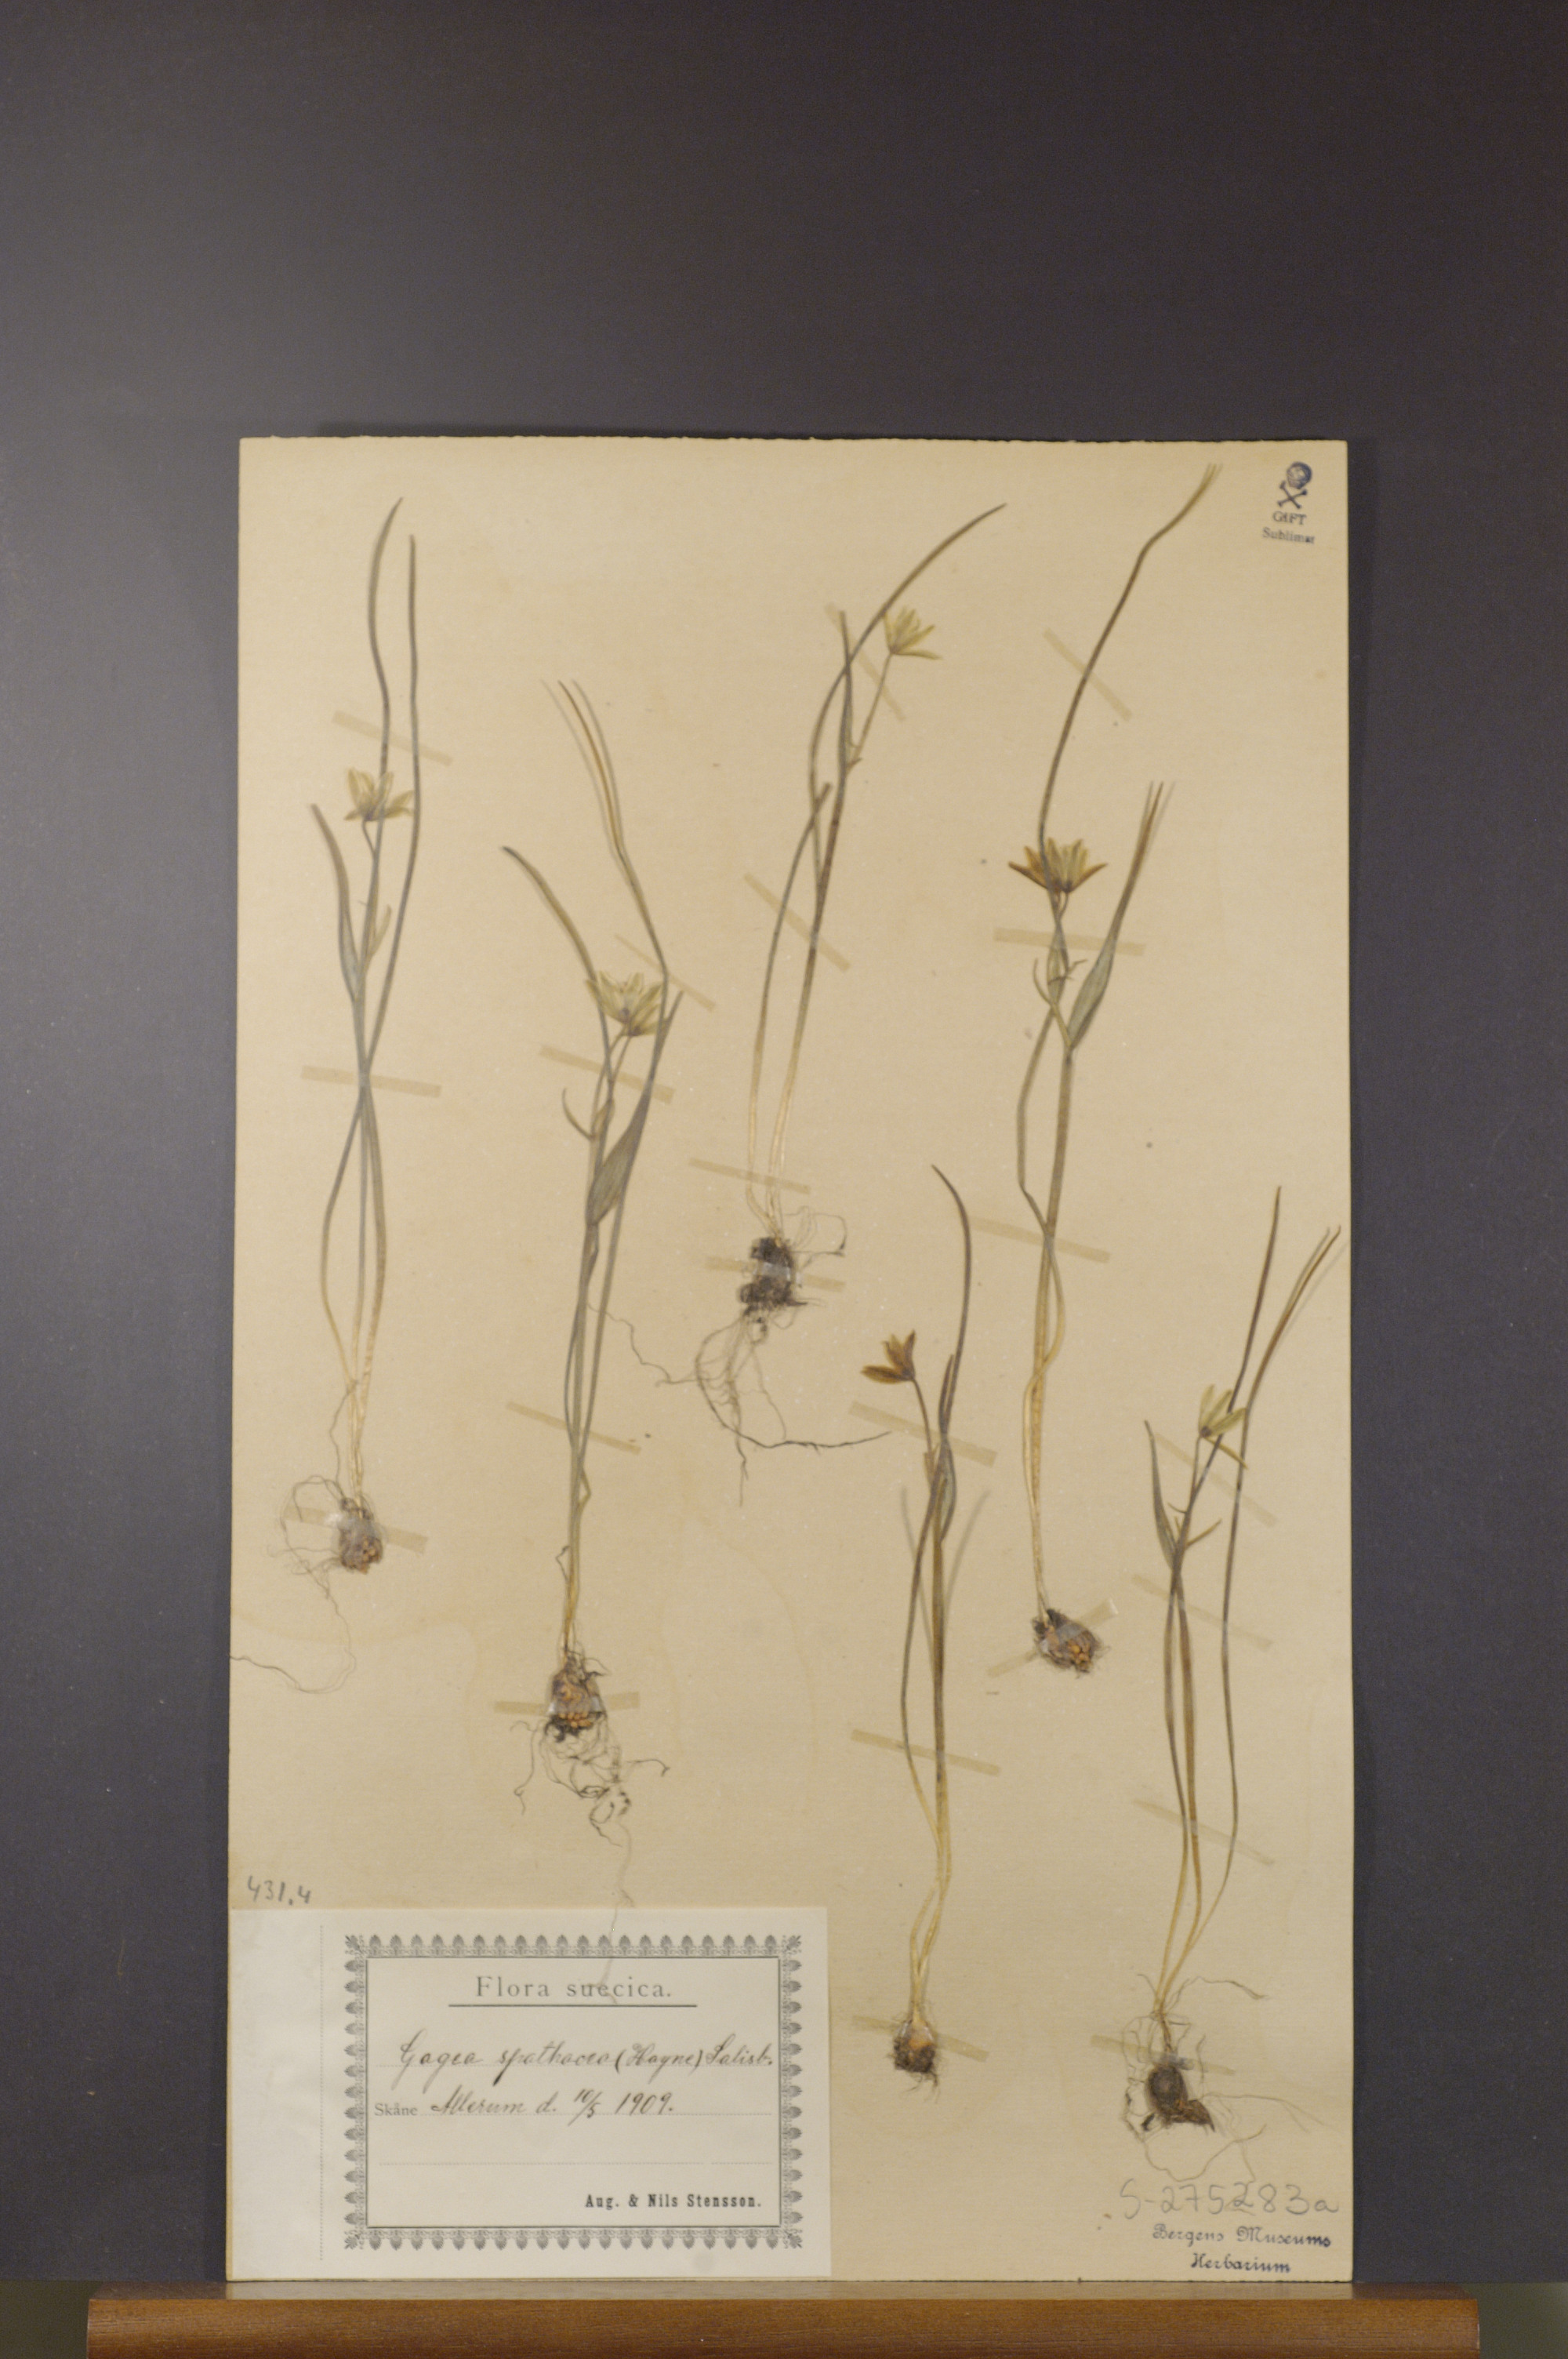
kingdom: Plantae
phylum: Tracheophyta
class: Liliopsida
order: Liliales
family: Liliaceae
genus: Gagea
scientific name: Gagea spathacea
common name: Belgian gagea
